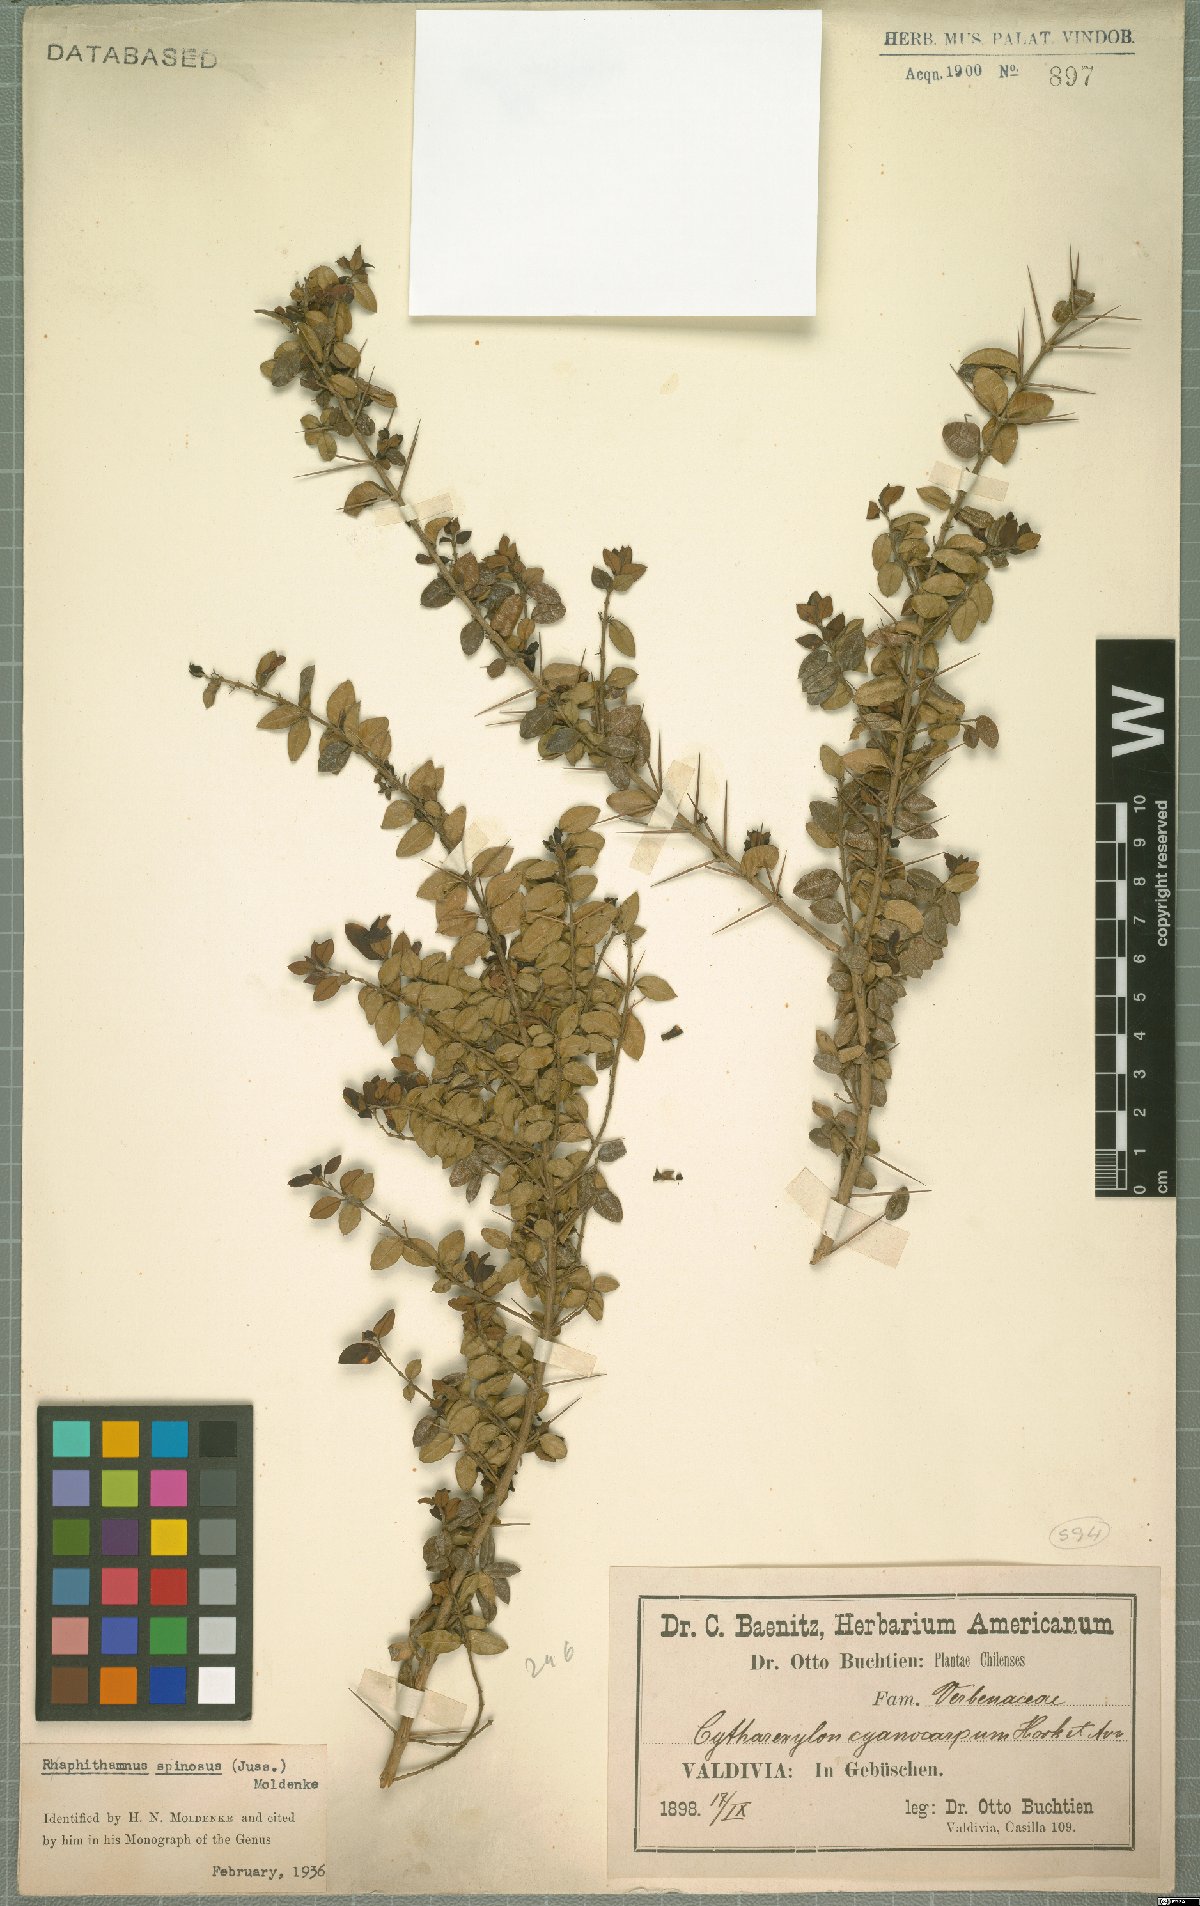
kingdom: Plantae
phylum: Tracheophyta
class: Magnoliopsida
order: Lamiales
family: Verbenaceae
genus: Rhaphithamnus
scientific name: Rhaphithamnus spinosus
